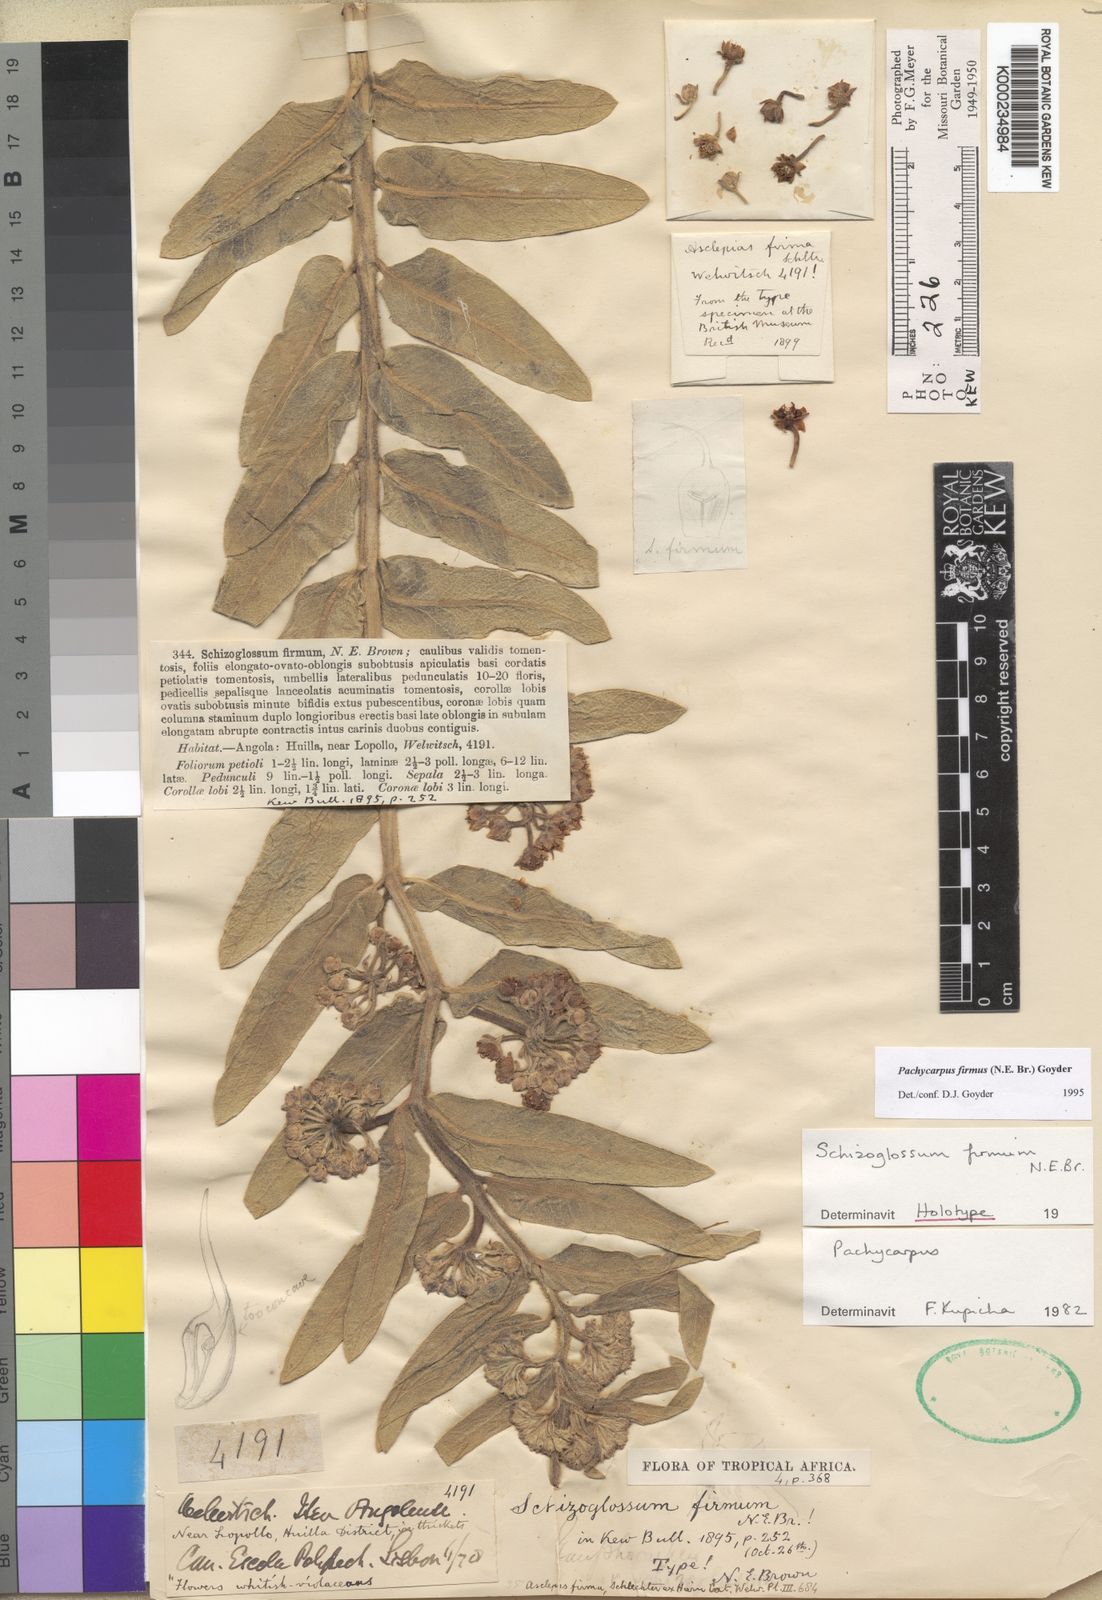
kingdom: Plantae
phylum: Tracheophyta
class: Magnoliopsida
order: Gentianales
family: Apocynaceae
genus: Pachycarpus
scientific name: Pachycarpus firmus
